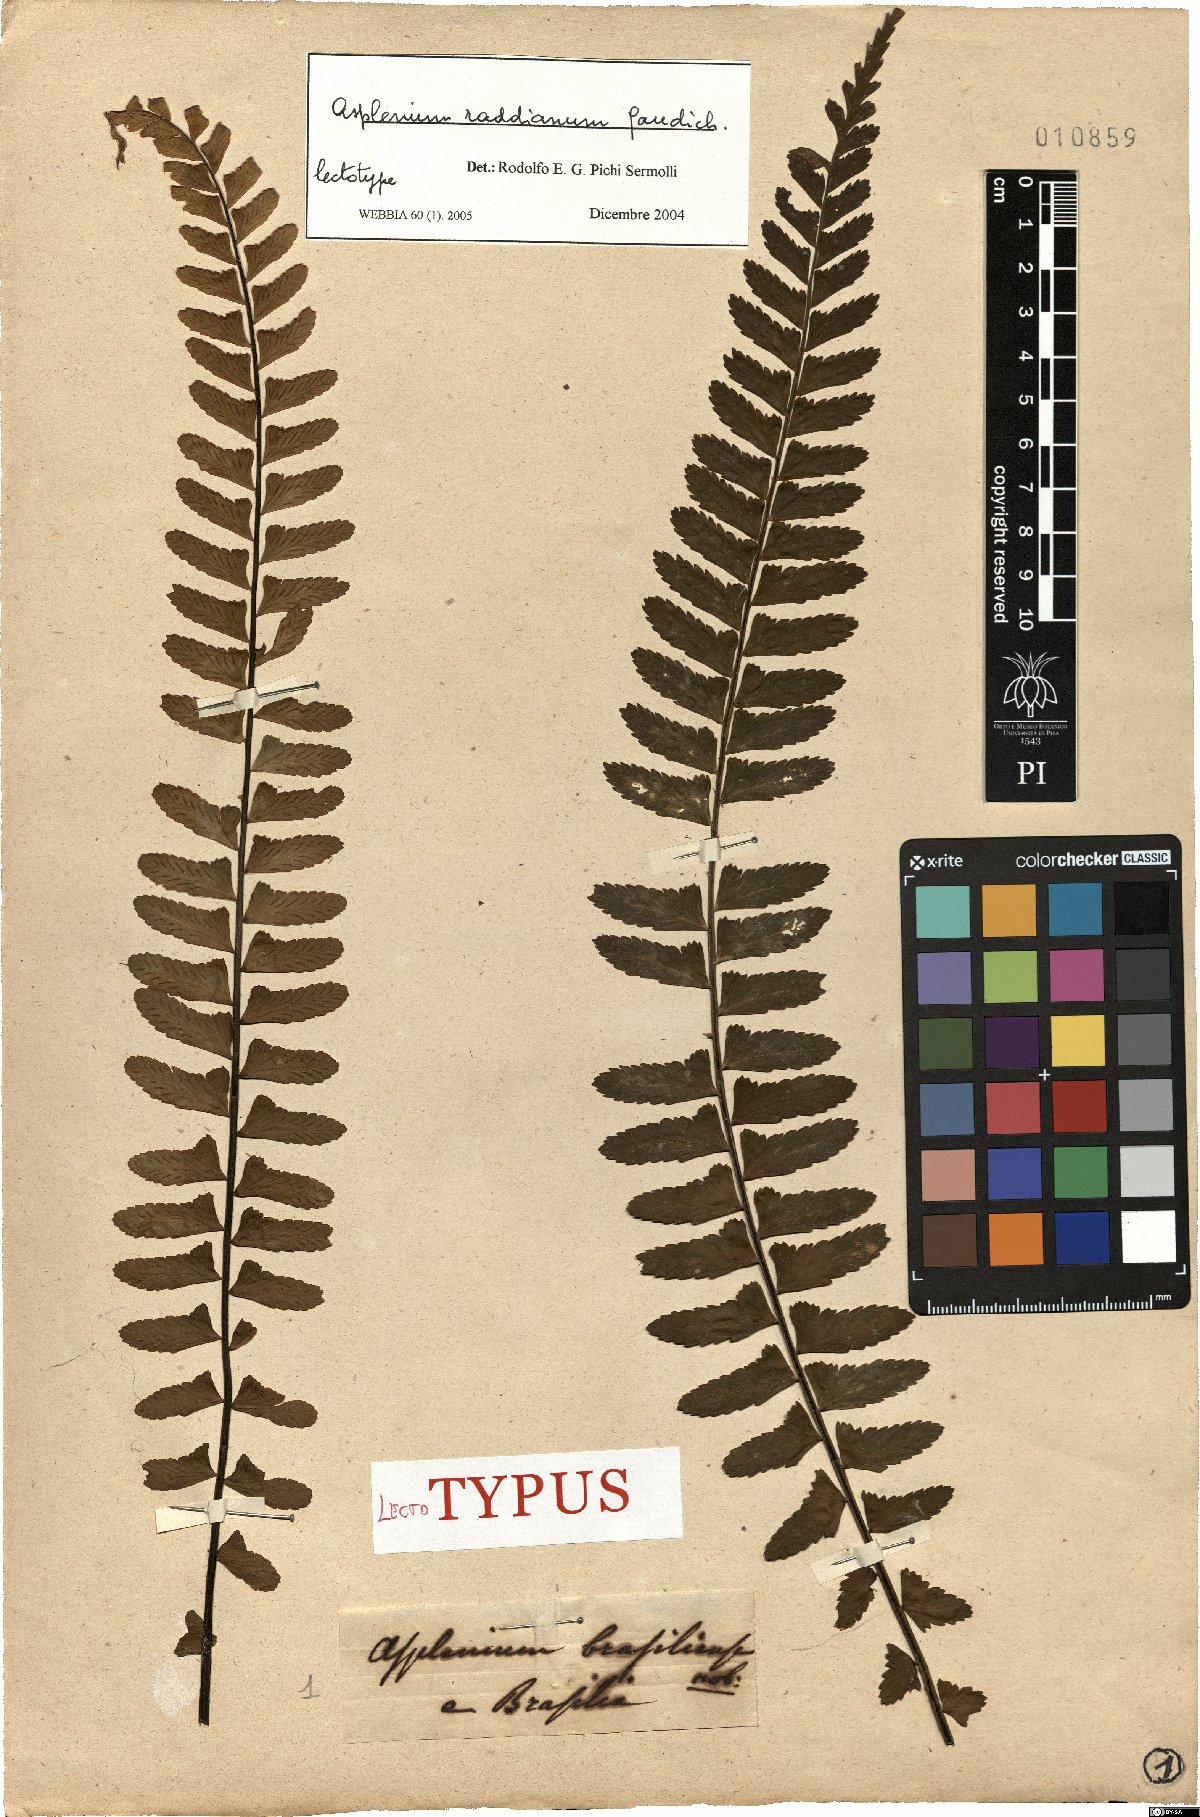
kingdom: Plantae
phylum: Tracheophyta
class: Polypodiopsida
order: Polypodiales
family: Aspleniaceae
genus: Asplenium
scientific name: Asplenium raddianum
